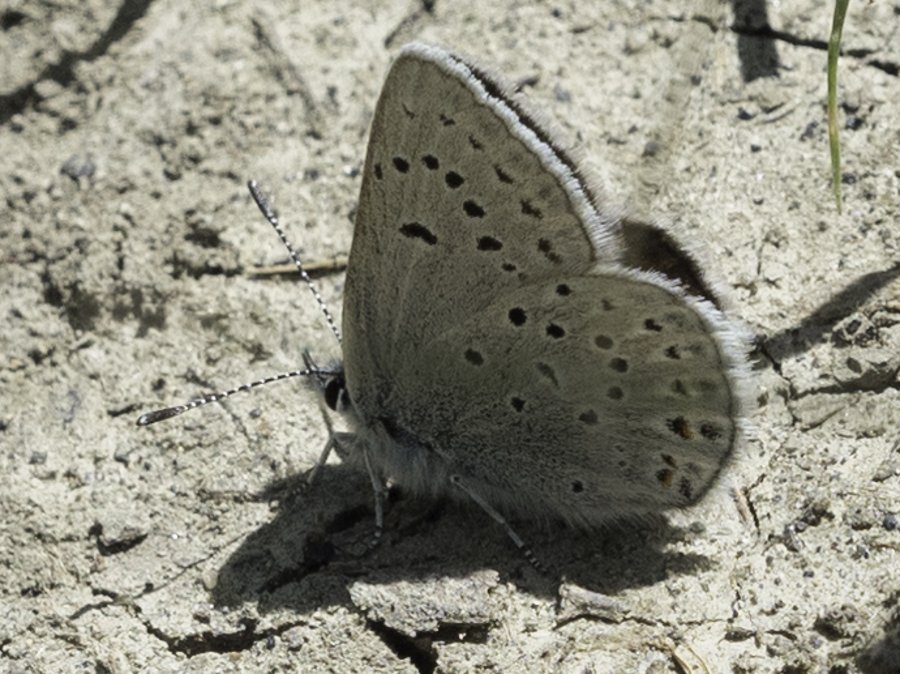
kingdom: Animalia
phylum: Arthropoda
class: Insecta
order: Lepidoptera
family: Lycaenidae
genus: Plebejus
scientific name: Plebejus saepiolus
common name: Greenish Blue
